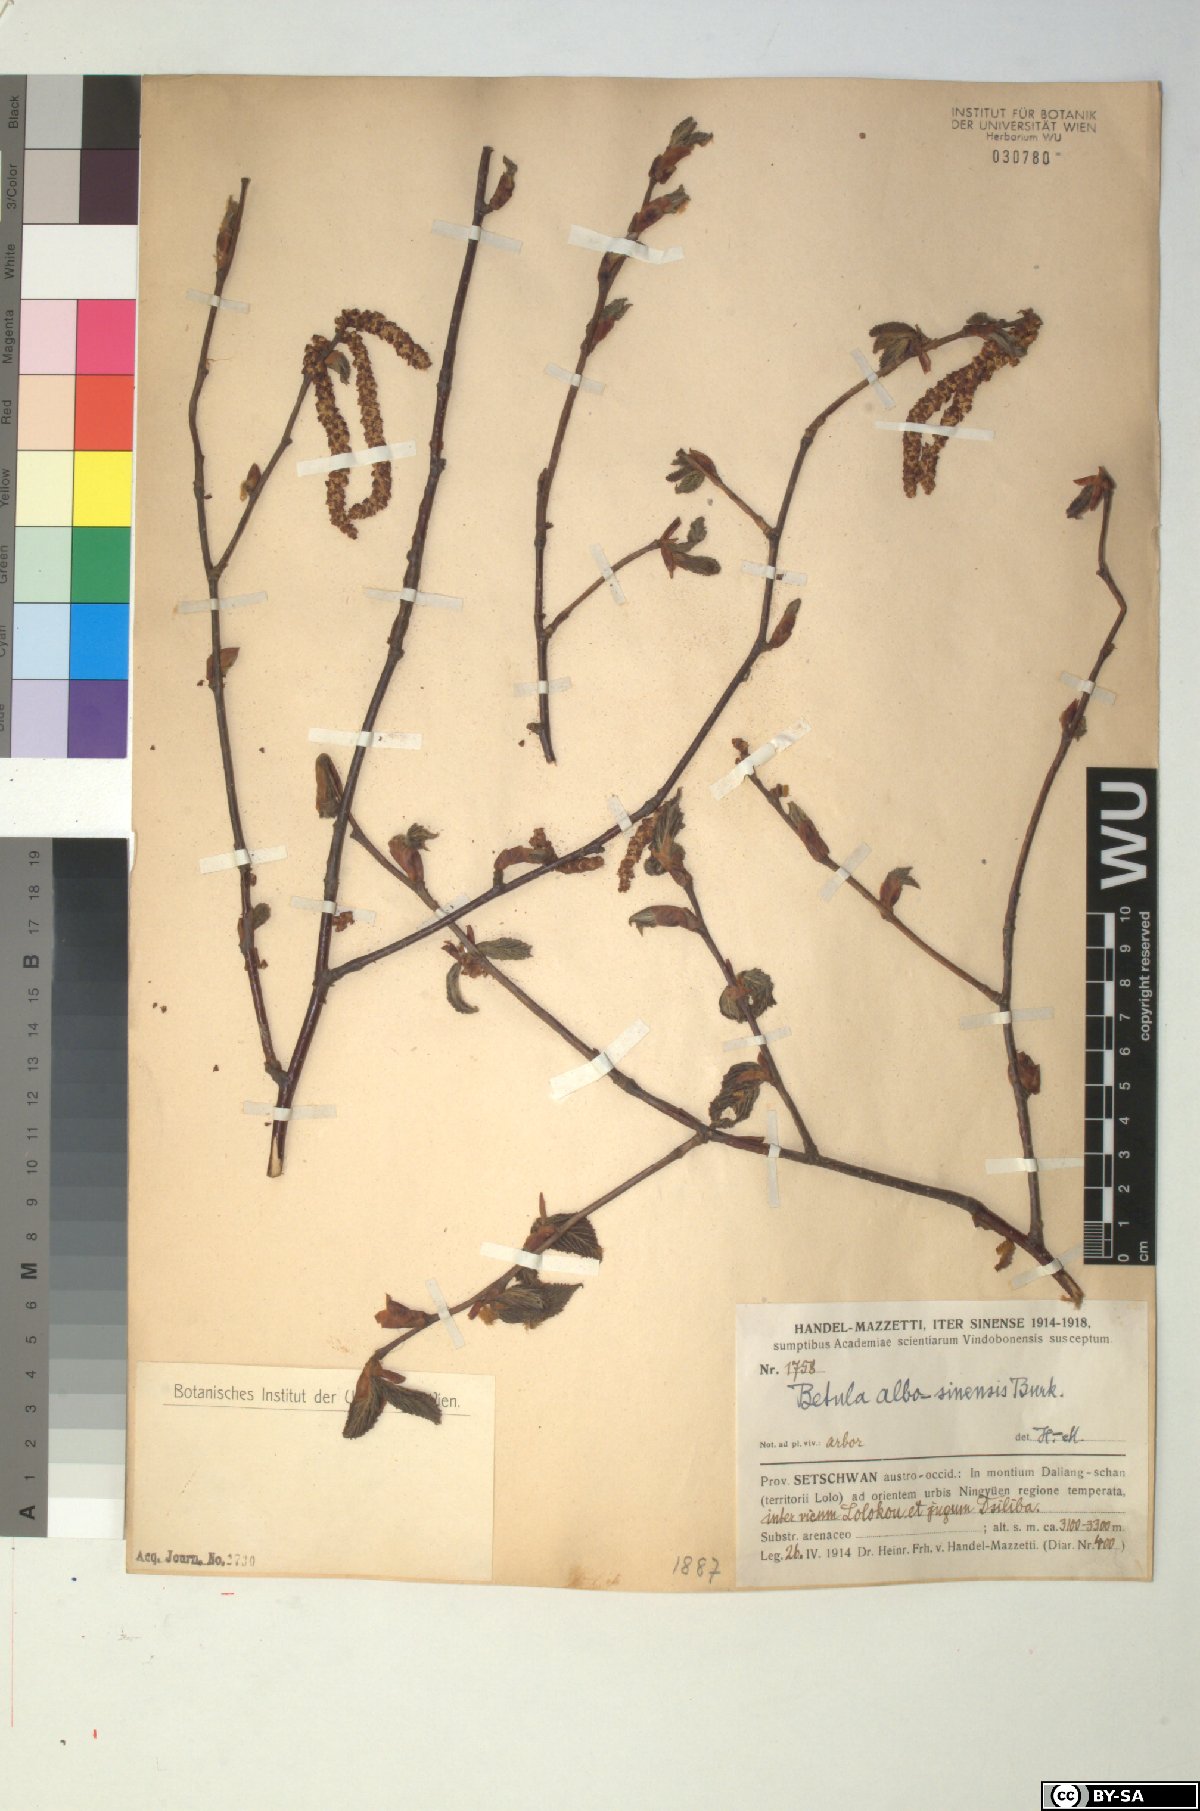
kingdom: Plantae
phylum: Tracheophyta
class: Magnoliopsida
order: Fagales
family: Betulaceae
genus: Betula
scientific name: Betula utilis
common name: Himalayan birch
